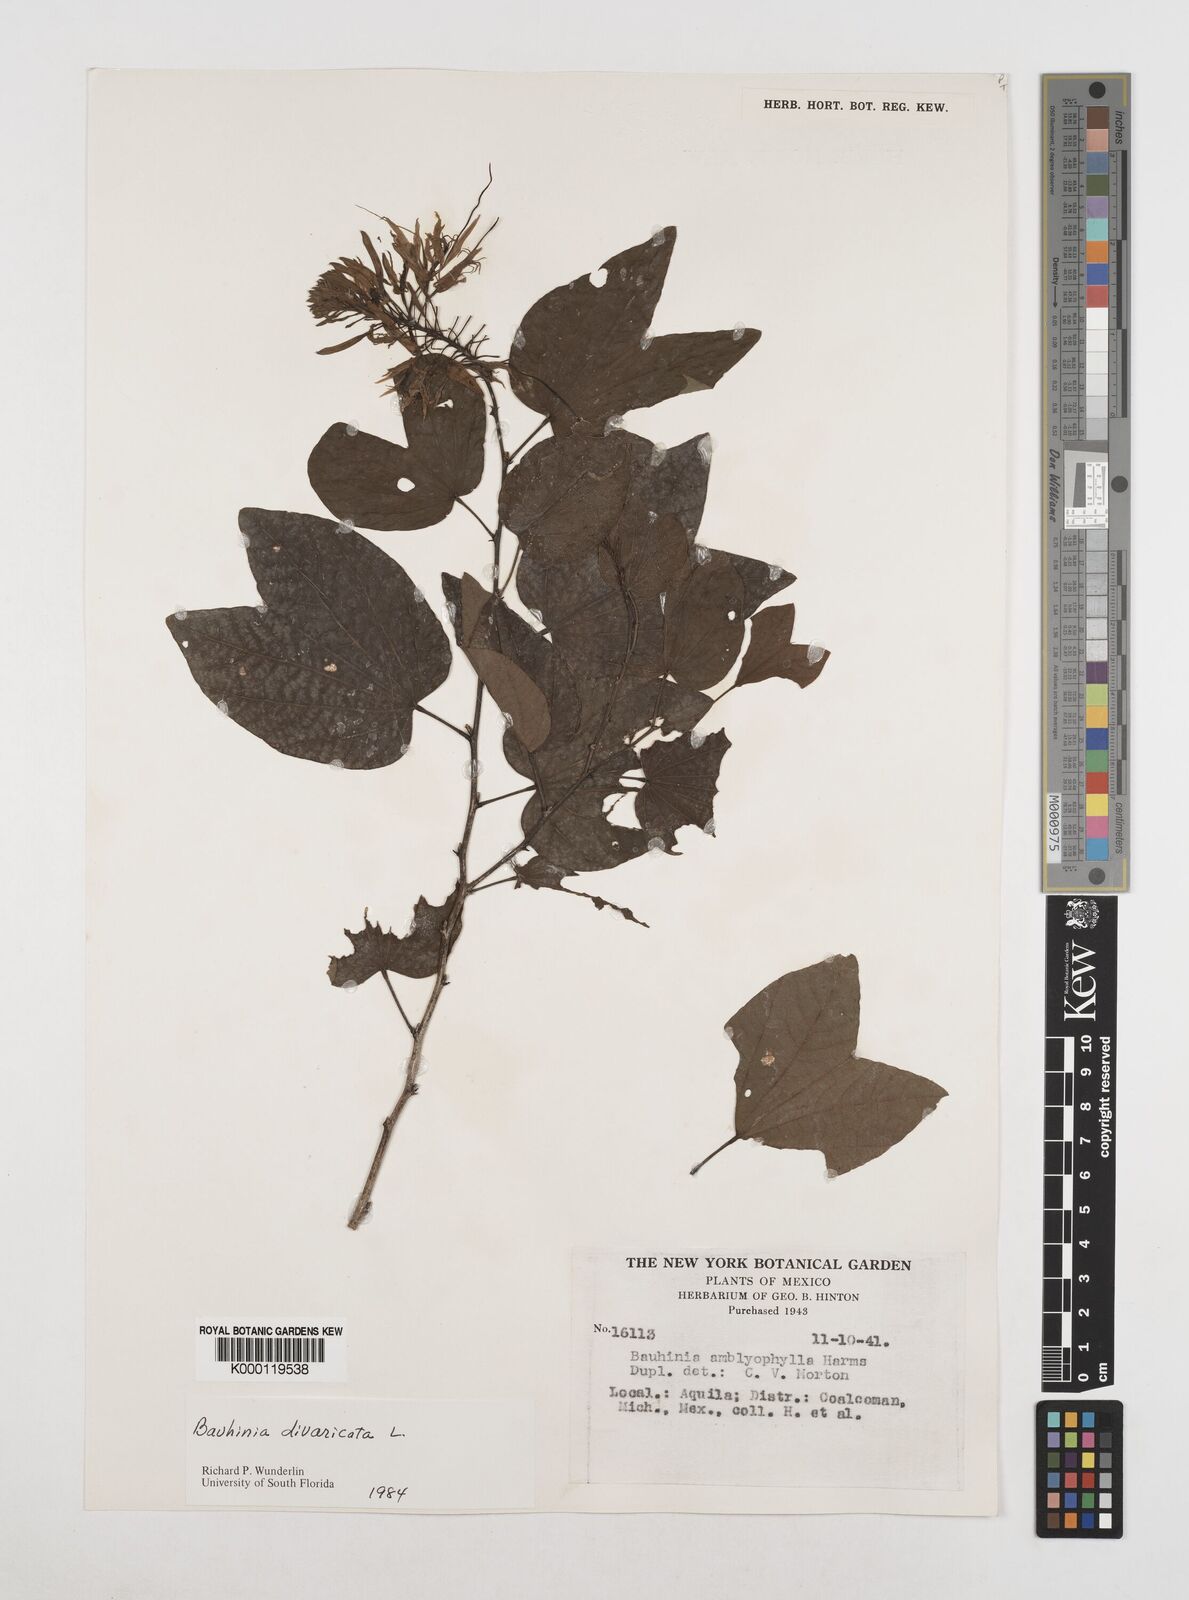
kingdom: Plantae
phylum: Tracheophyta
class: Magnoliopsida
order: Fabales
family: Fabaceae
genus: Bauhinia
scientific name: Bauhinia divaricata
